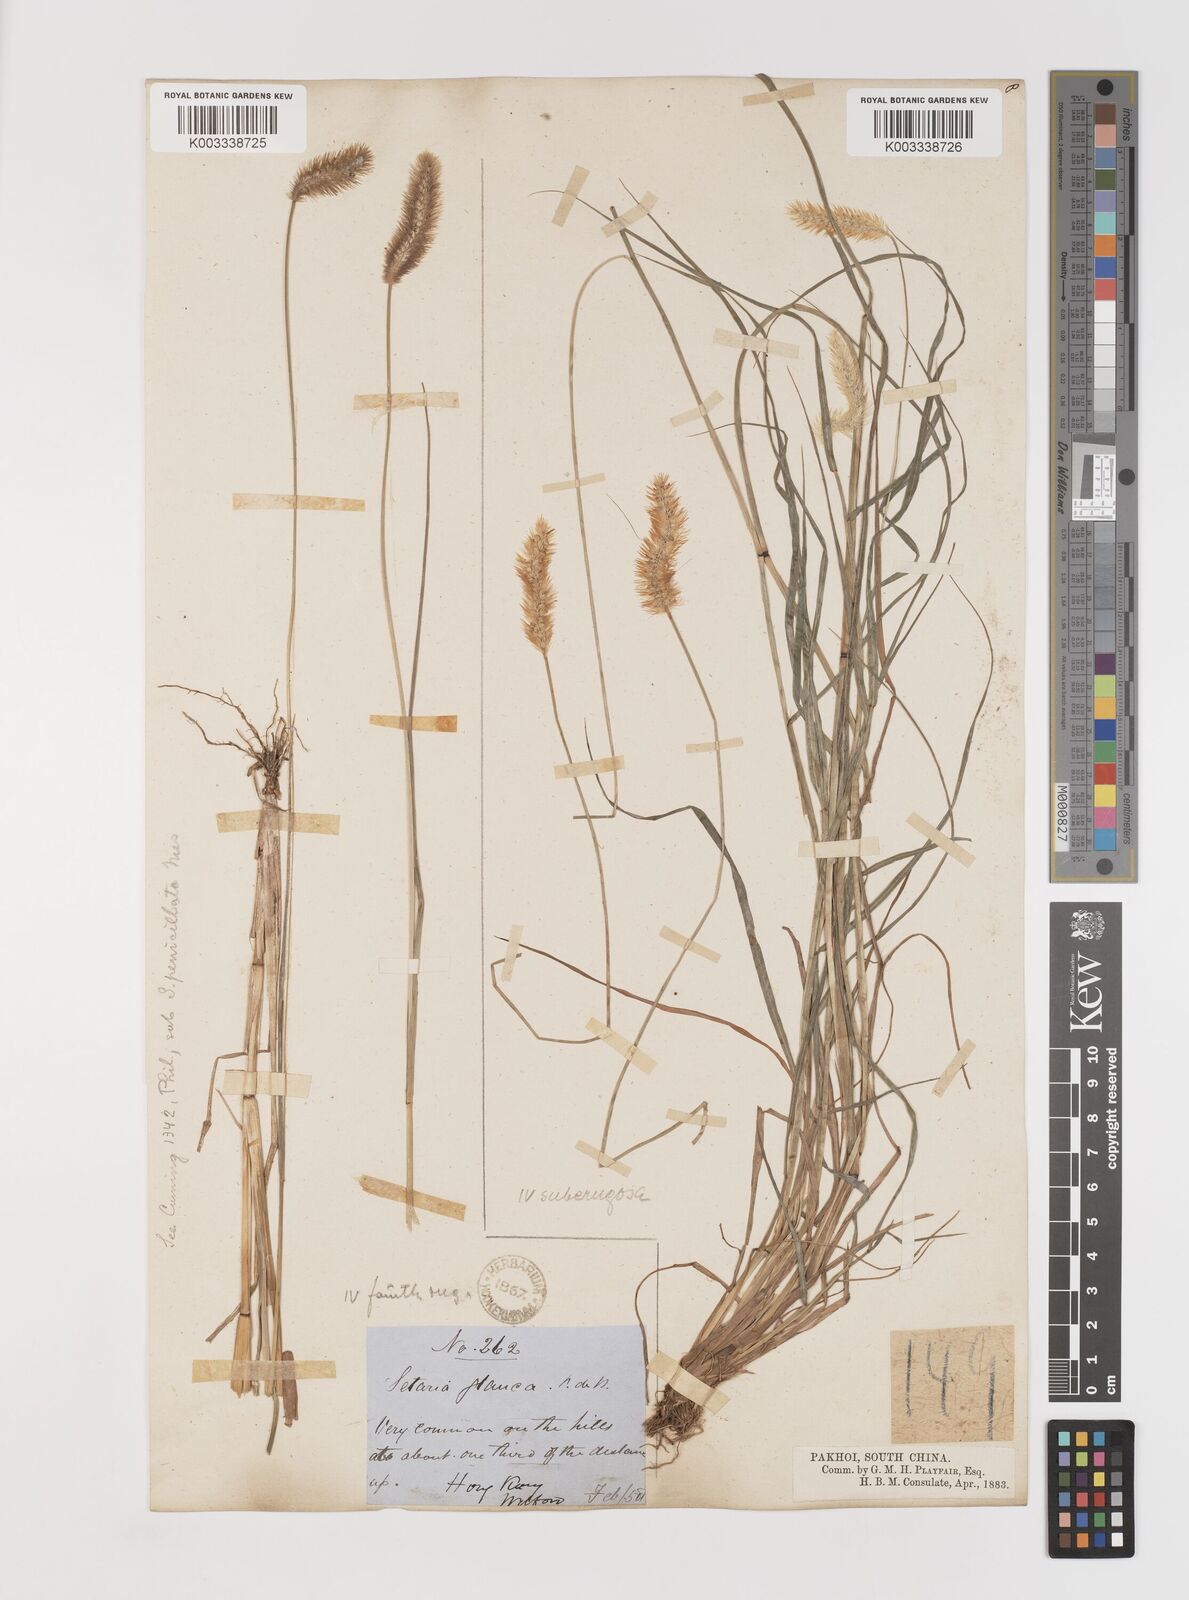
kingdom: Plantae
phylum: Tracheophyta
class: Liliopsida
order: Poales
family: Poaceae
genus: Setaria
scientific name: Setaria parviflora
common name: Knotroot bristle-grass
